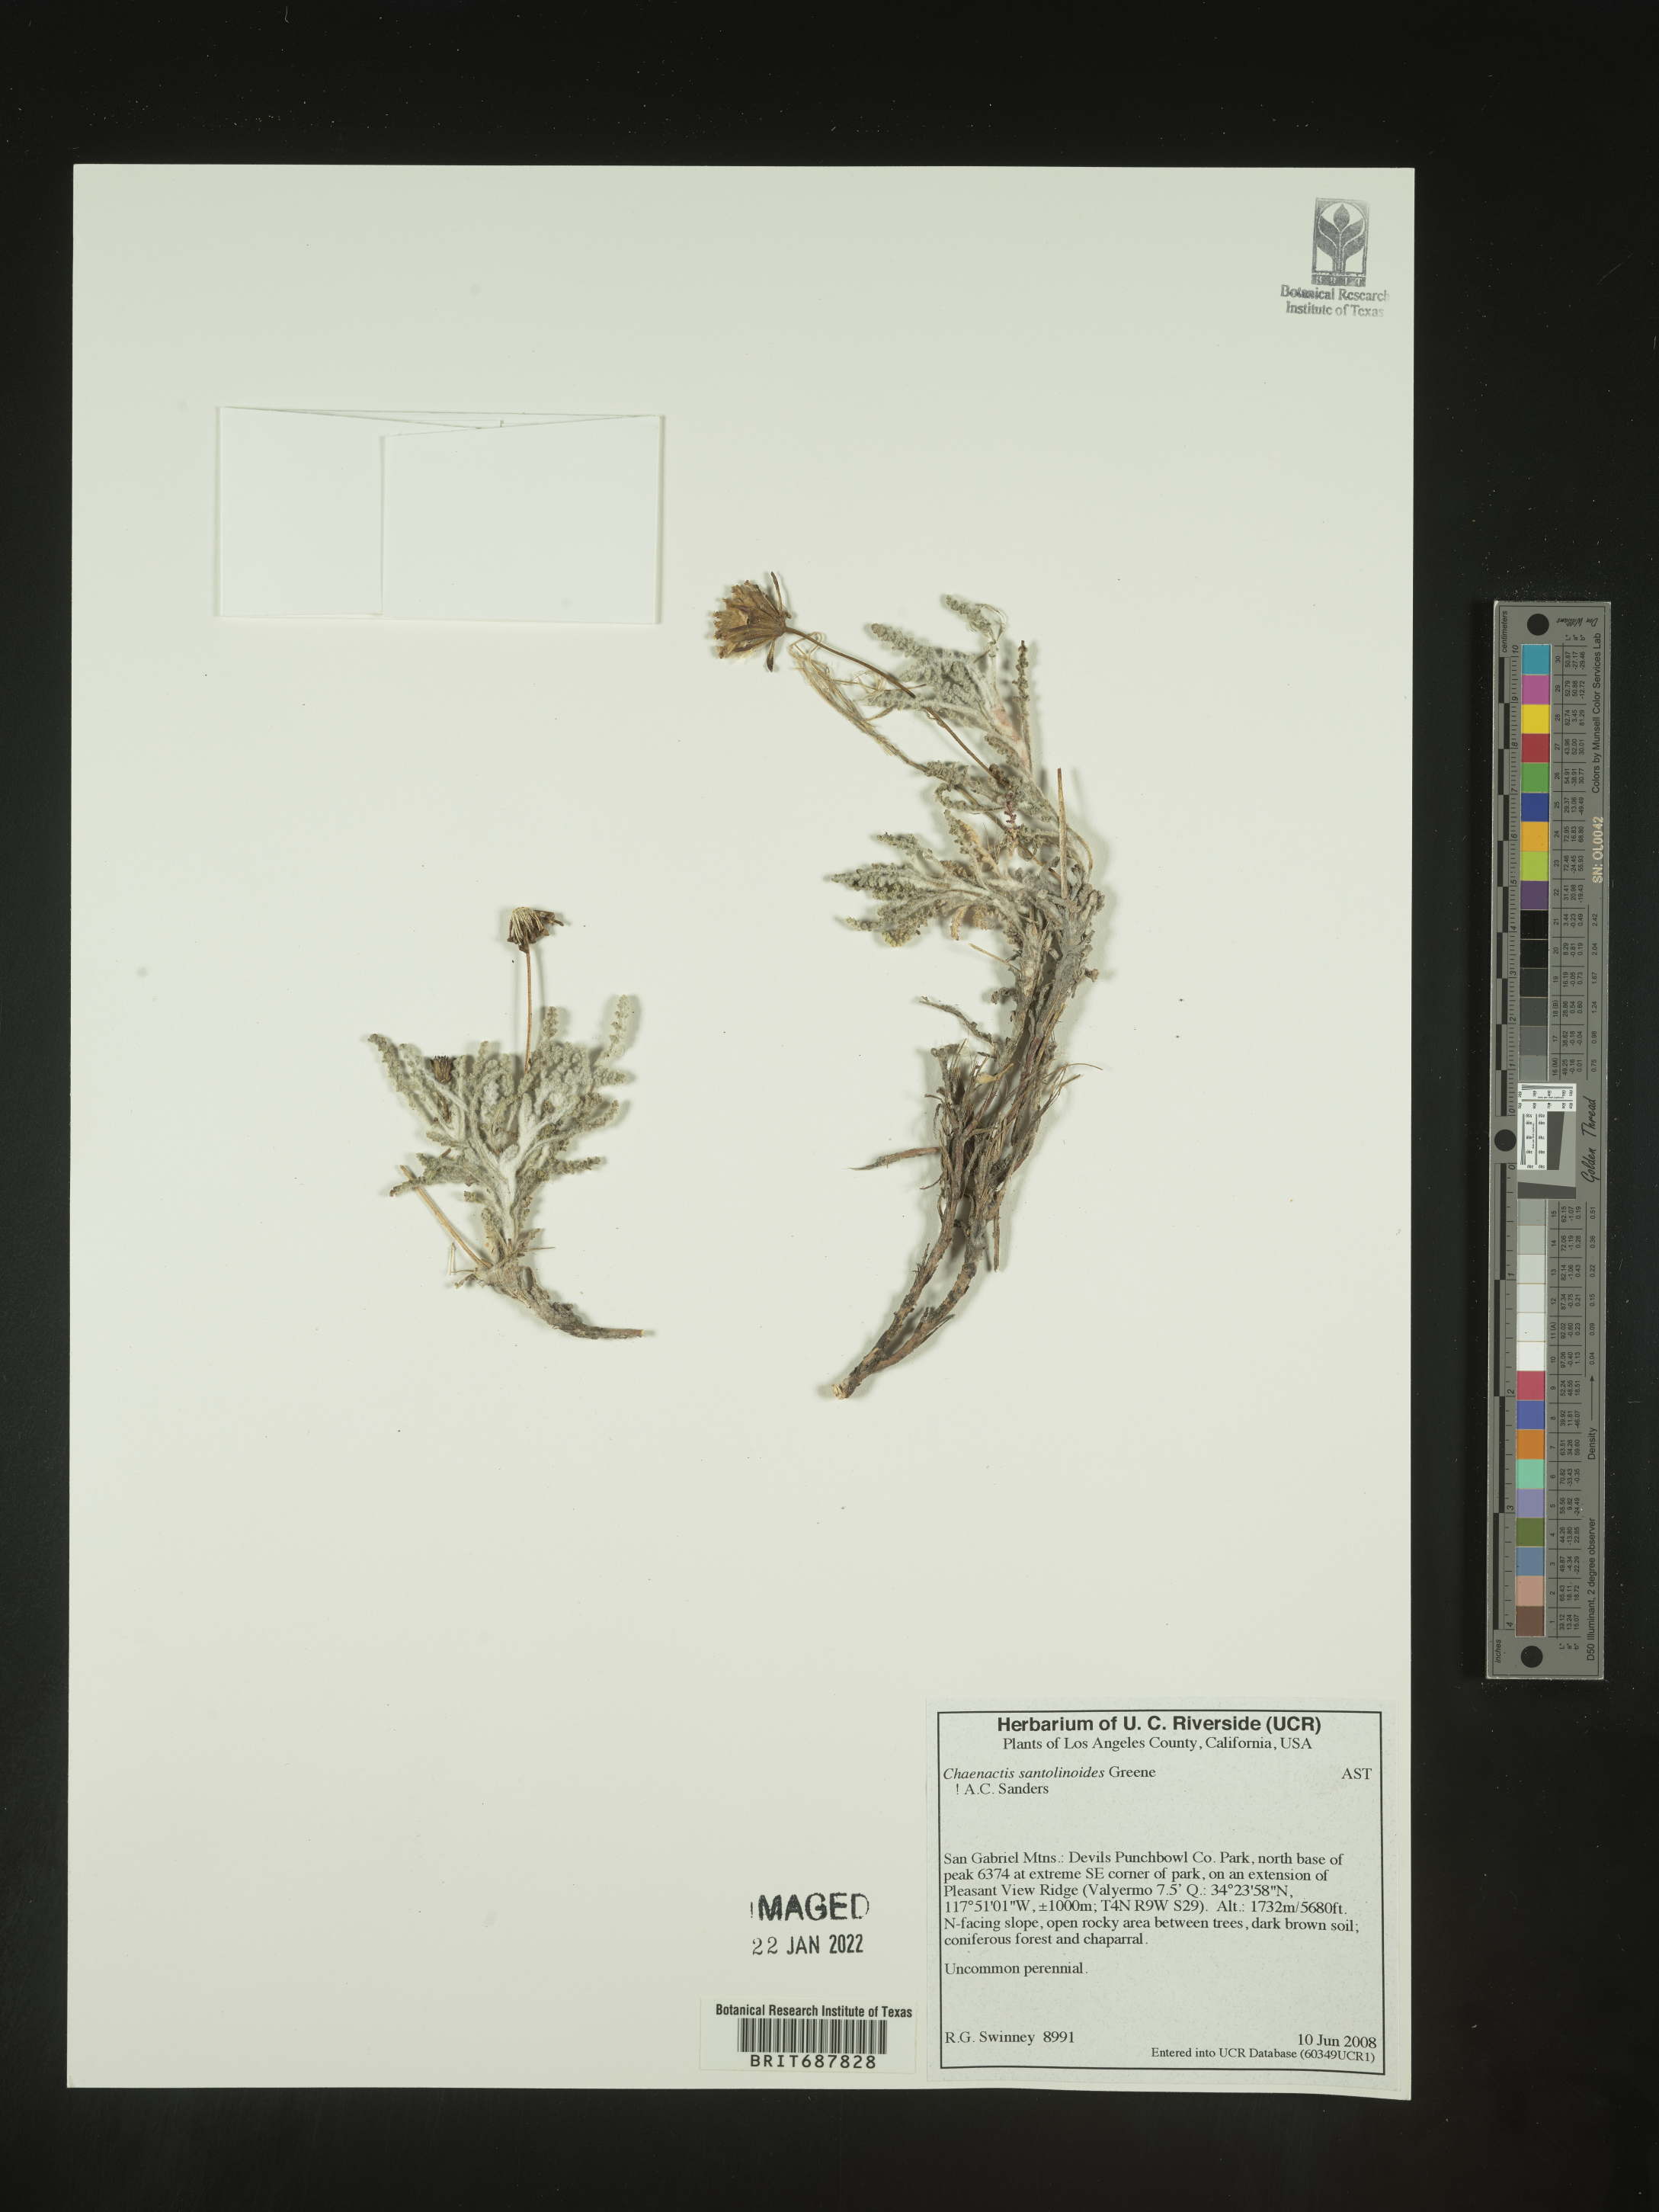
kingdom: Plantae
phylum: Tracheophyta
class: Magnoliopsida
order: Asterales
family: Asteraceae
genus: Chaenactis
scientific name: Chaenactis santolinoides
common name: Santolina pincushion
